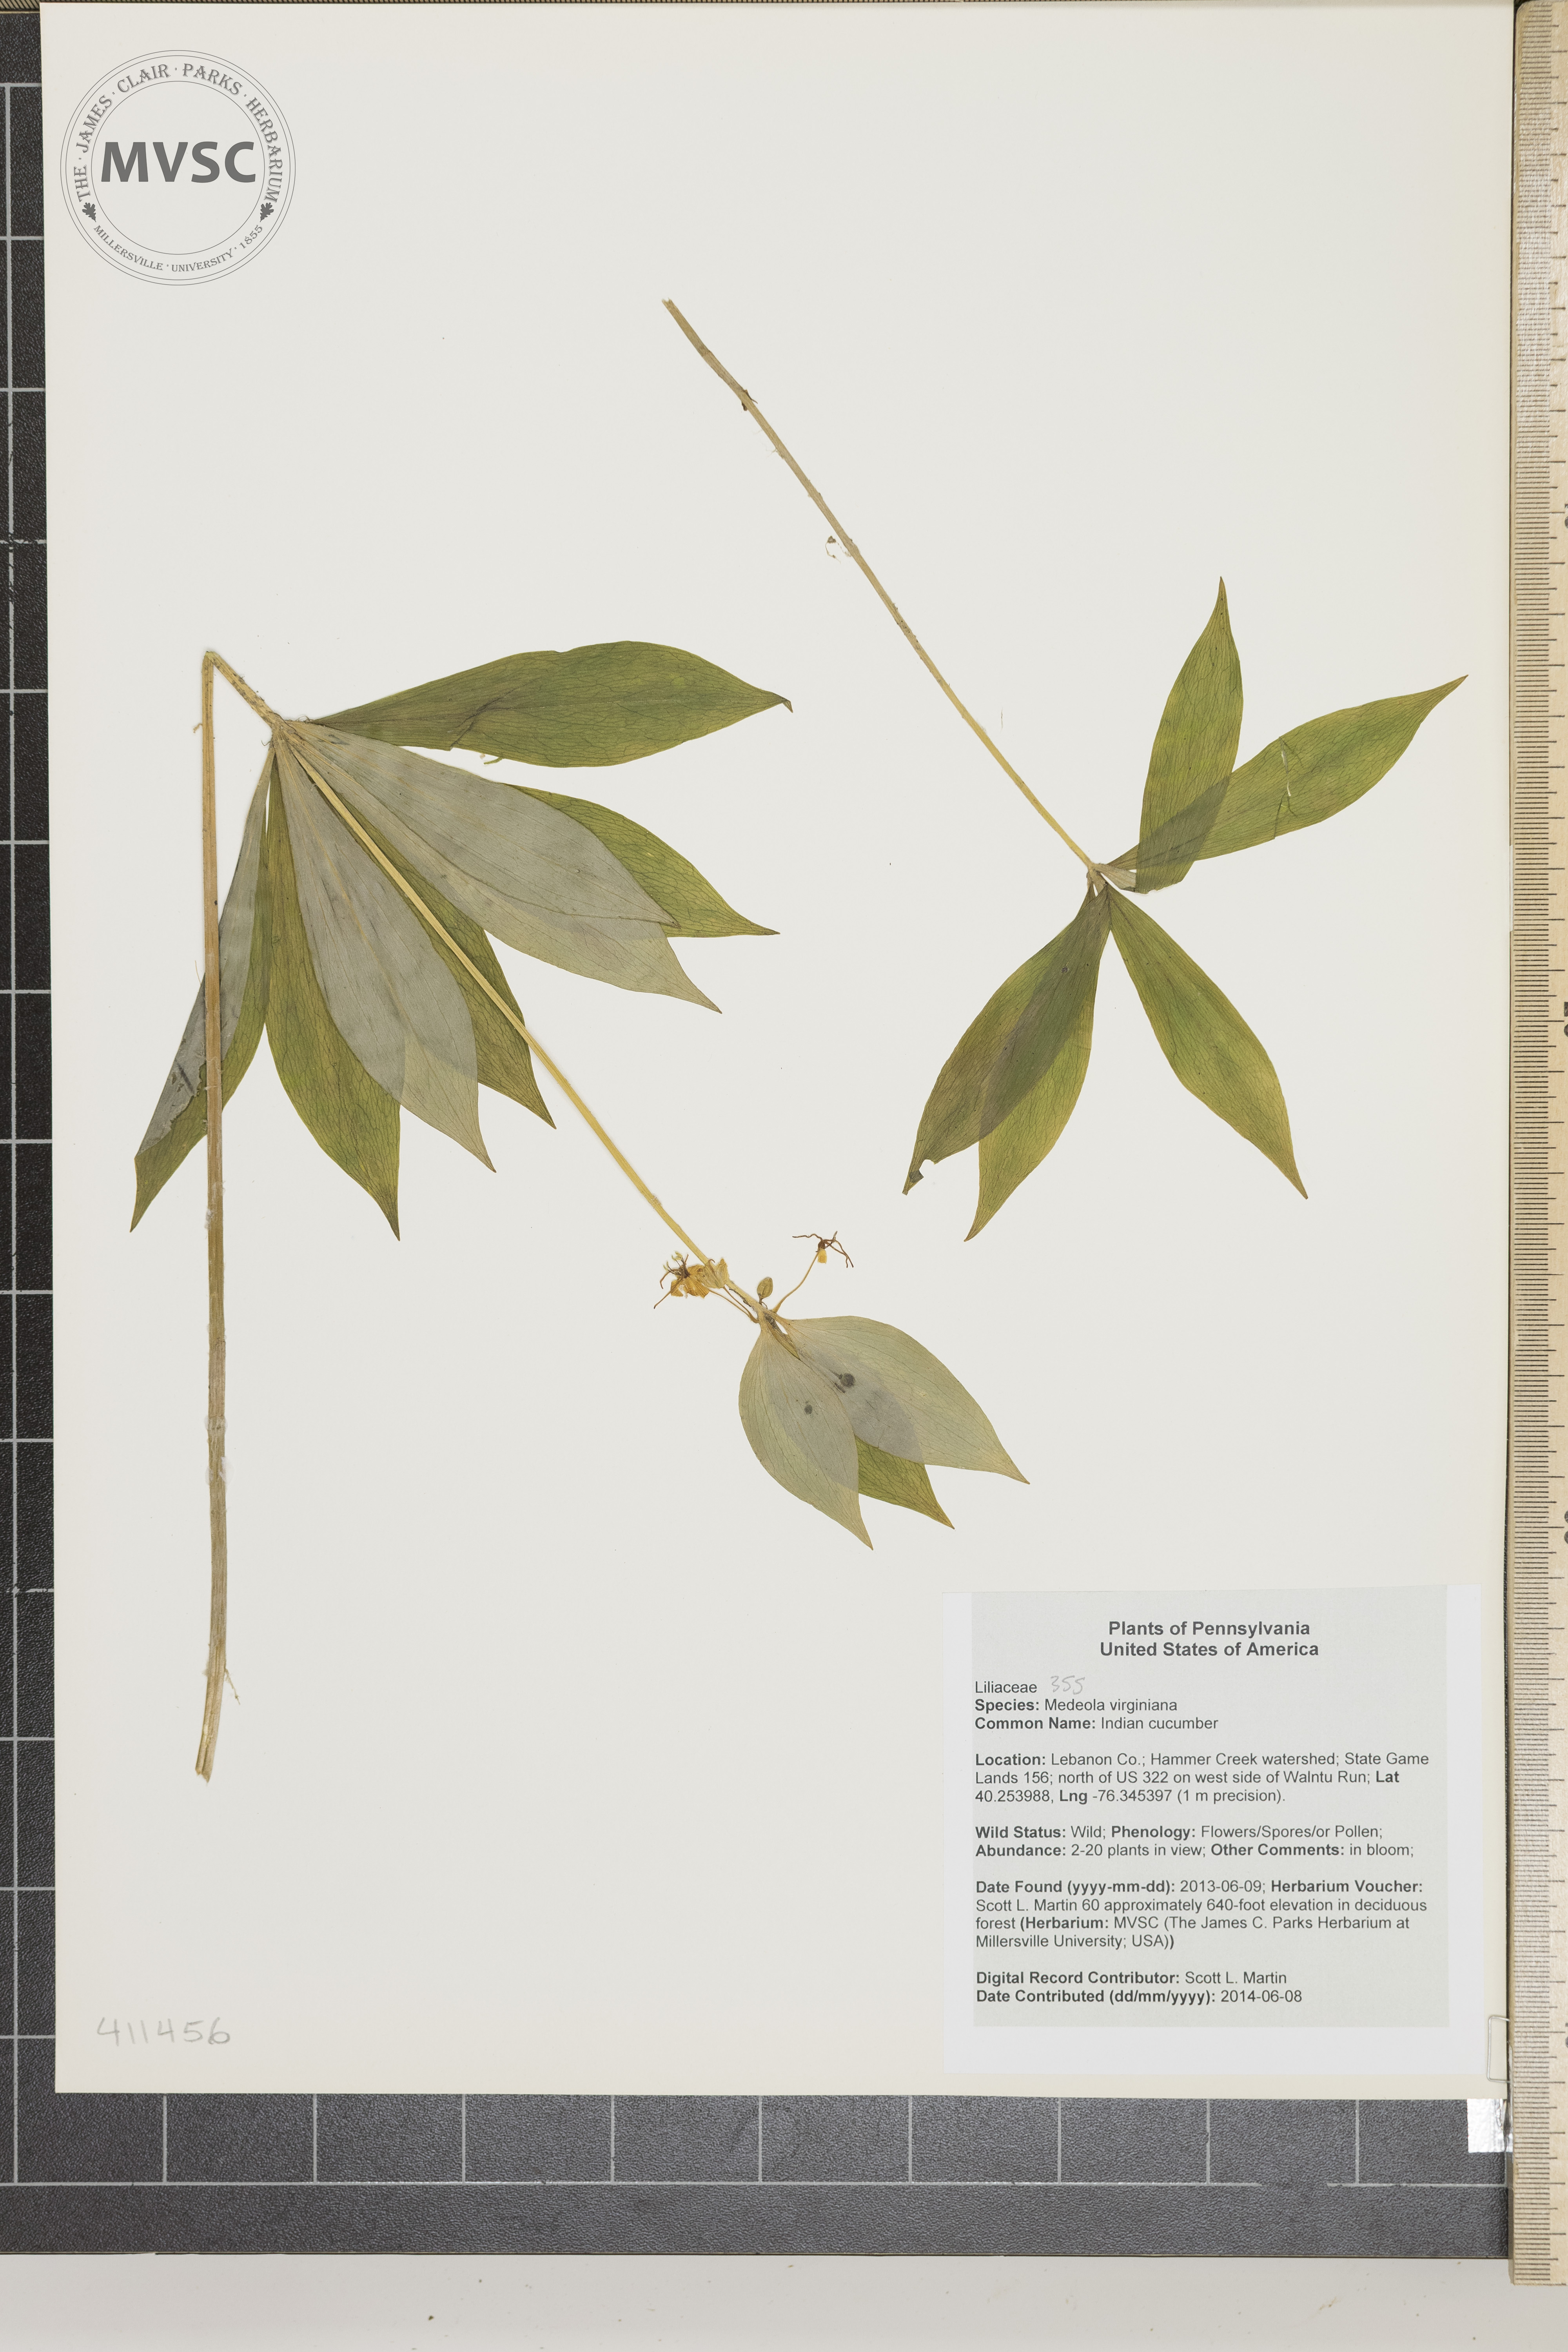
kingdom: Plantae
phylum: Tracheophyta
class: Liliopsida
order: Liliales
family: Liliaceae
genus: Medeola
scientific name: Medeola virginiana
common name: Indian cucumber
